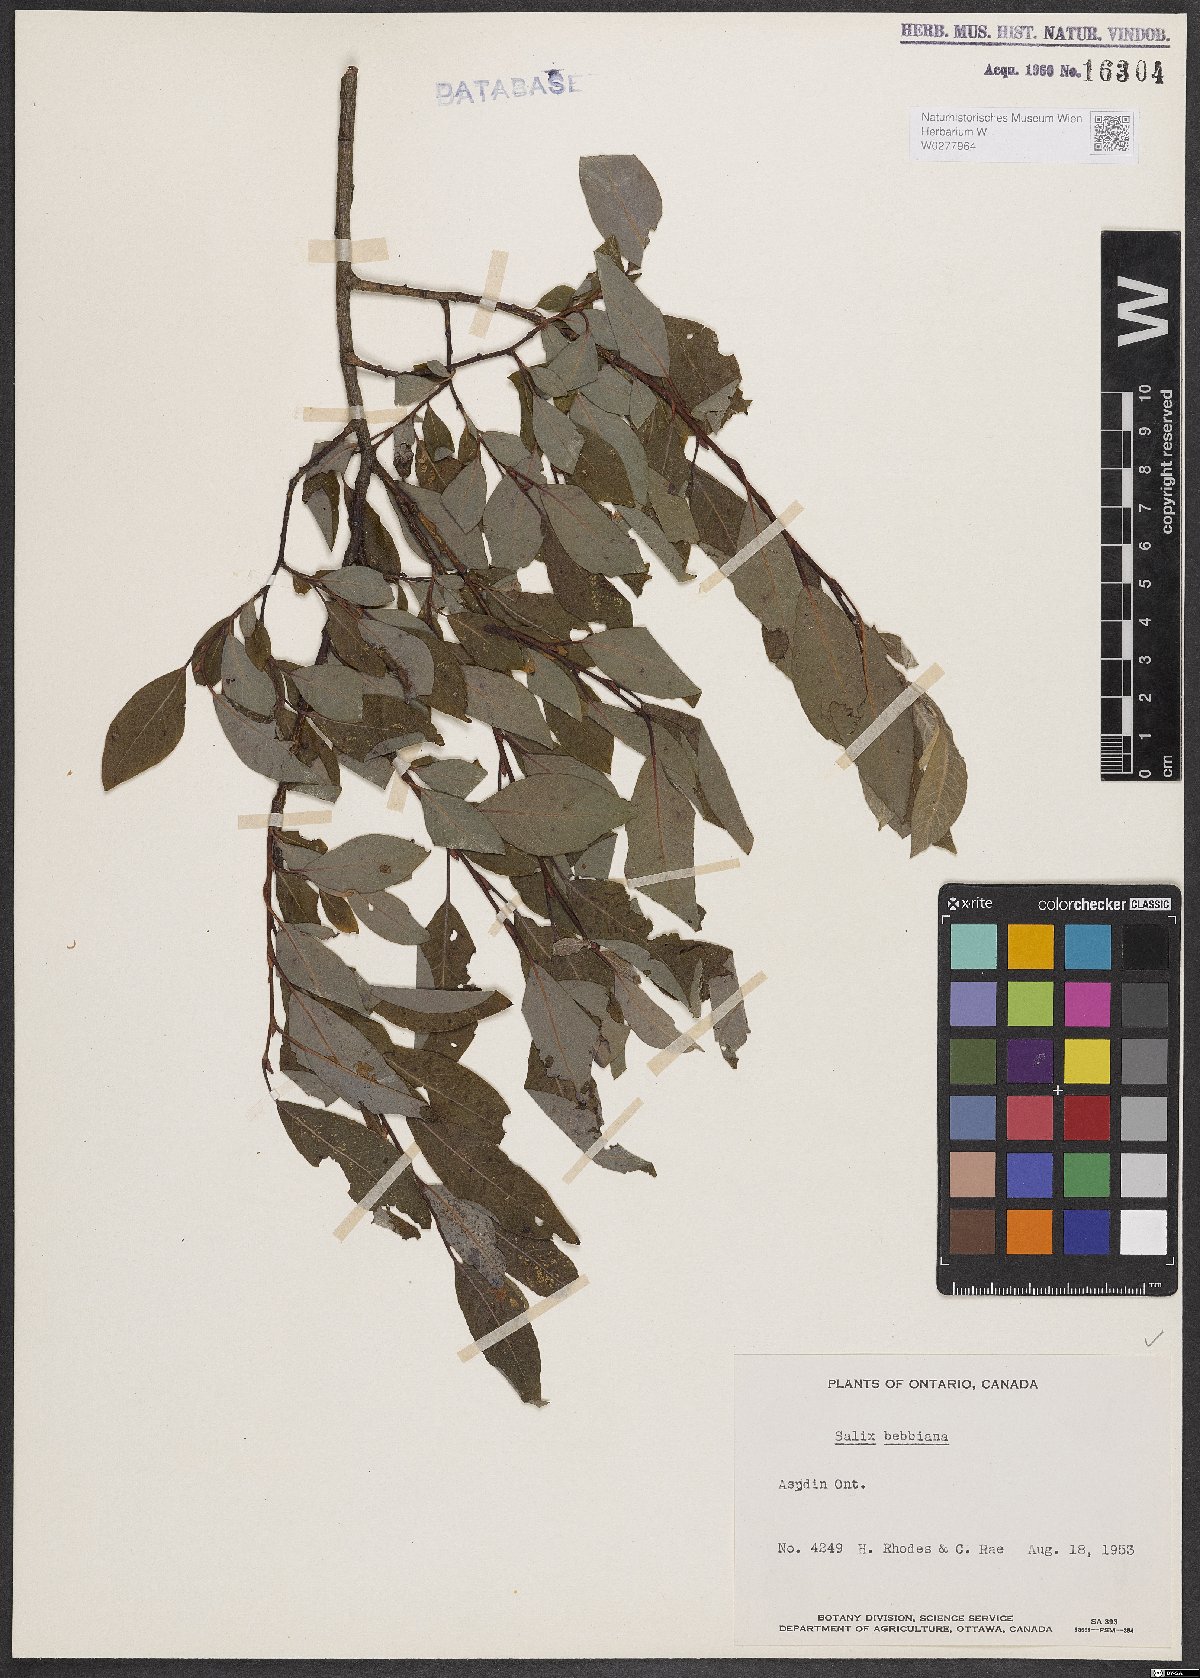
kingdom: Plantae
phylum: Tracheophyta
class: Magnoliopsida
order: Malpighiales
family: Salicaceae
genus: Salix
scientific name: Salix bebbiana
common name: Bebb's willow
